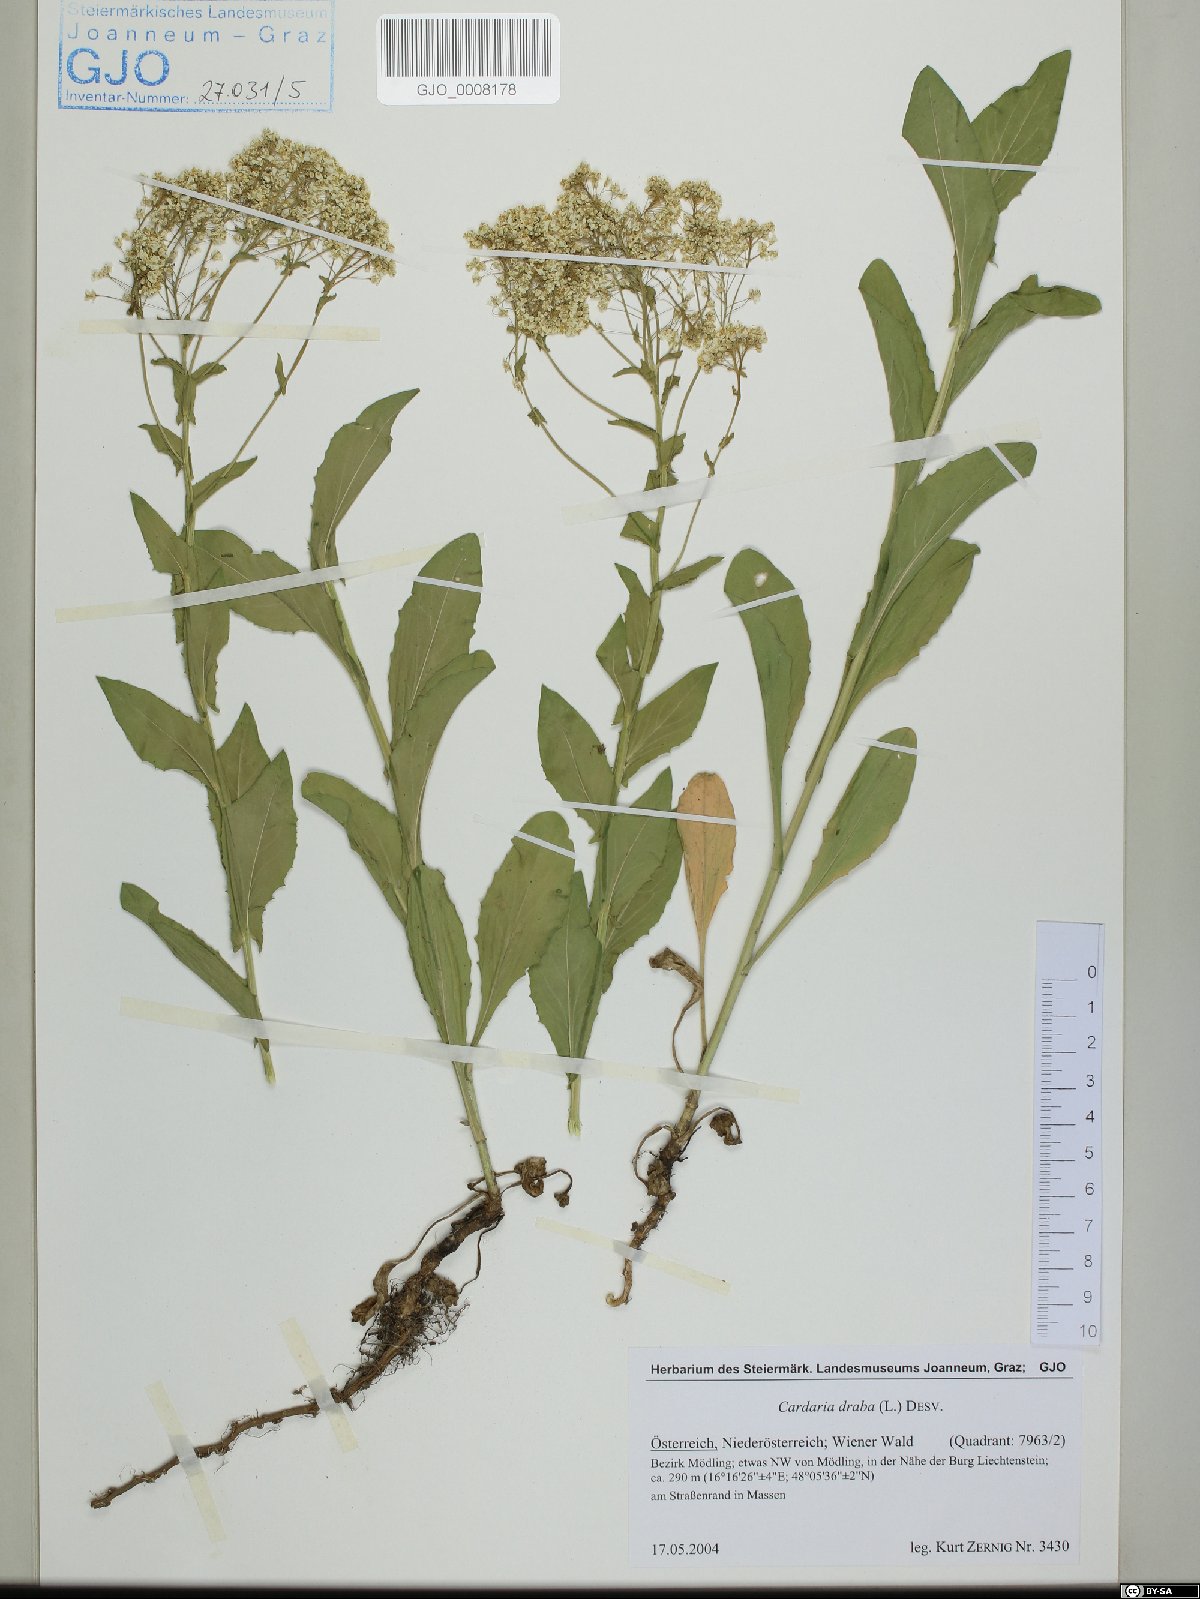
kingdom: Plantae
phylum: Tracheophyta
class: Magnoliopsida
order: Brassicales
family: Brassicaceae
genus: Lepidium
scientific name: Lepidium draba
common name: Hoary cress
